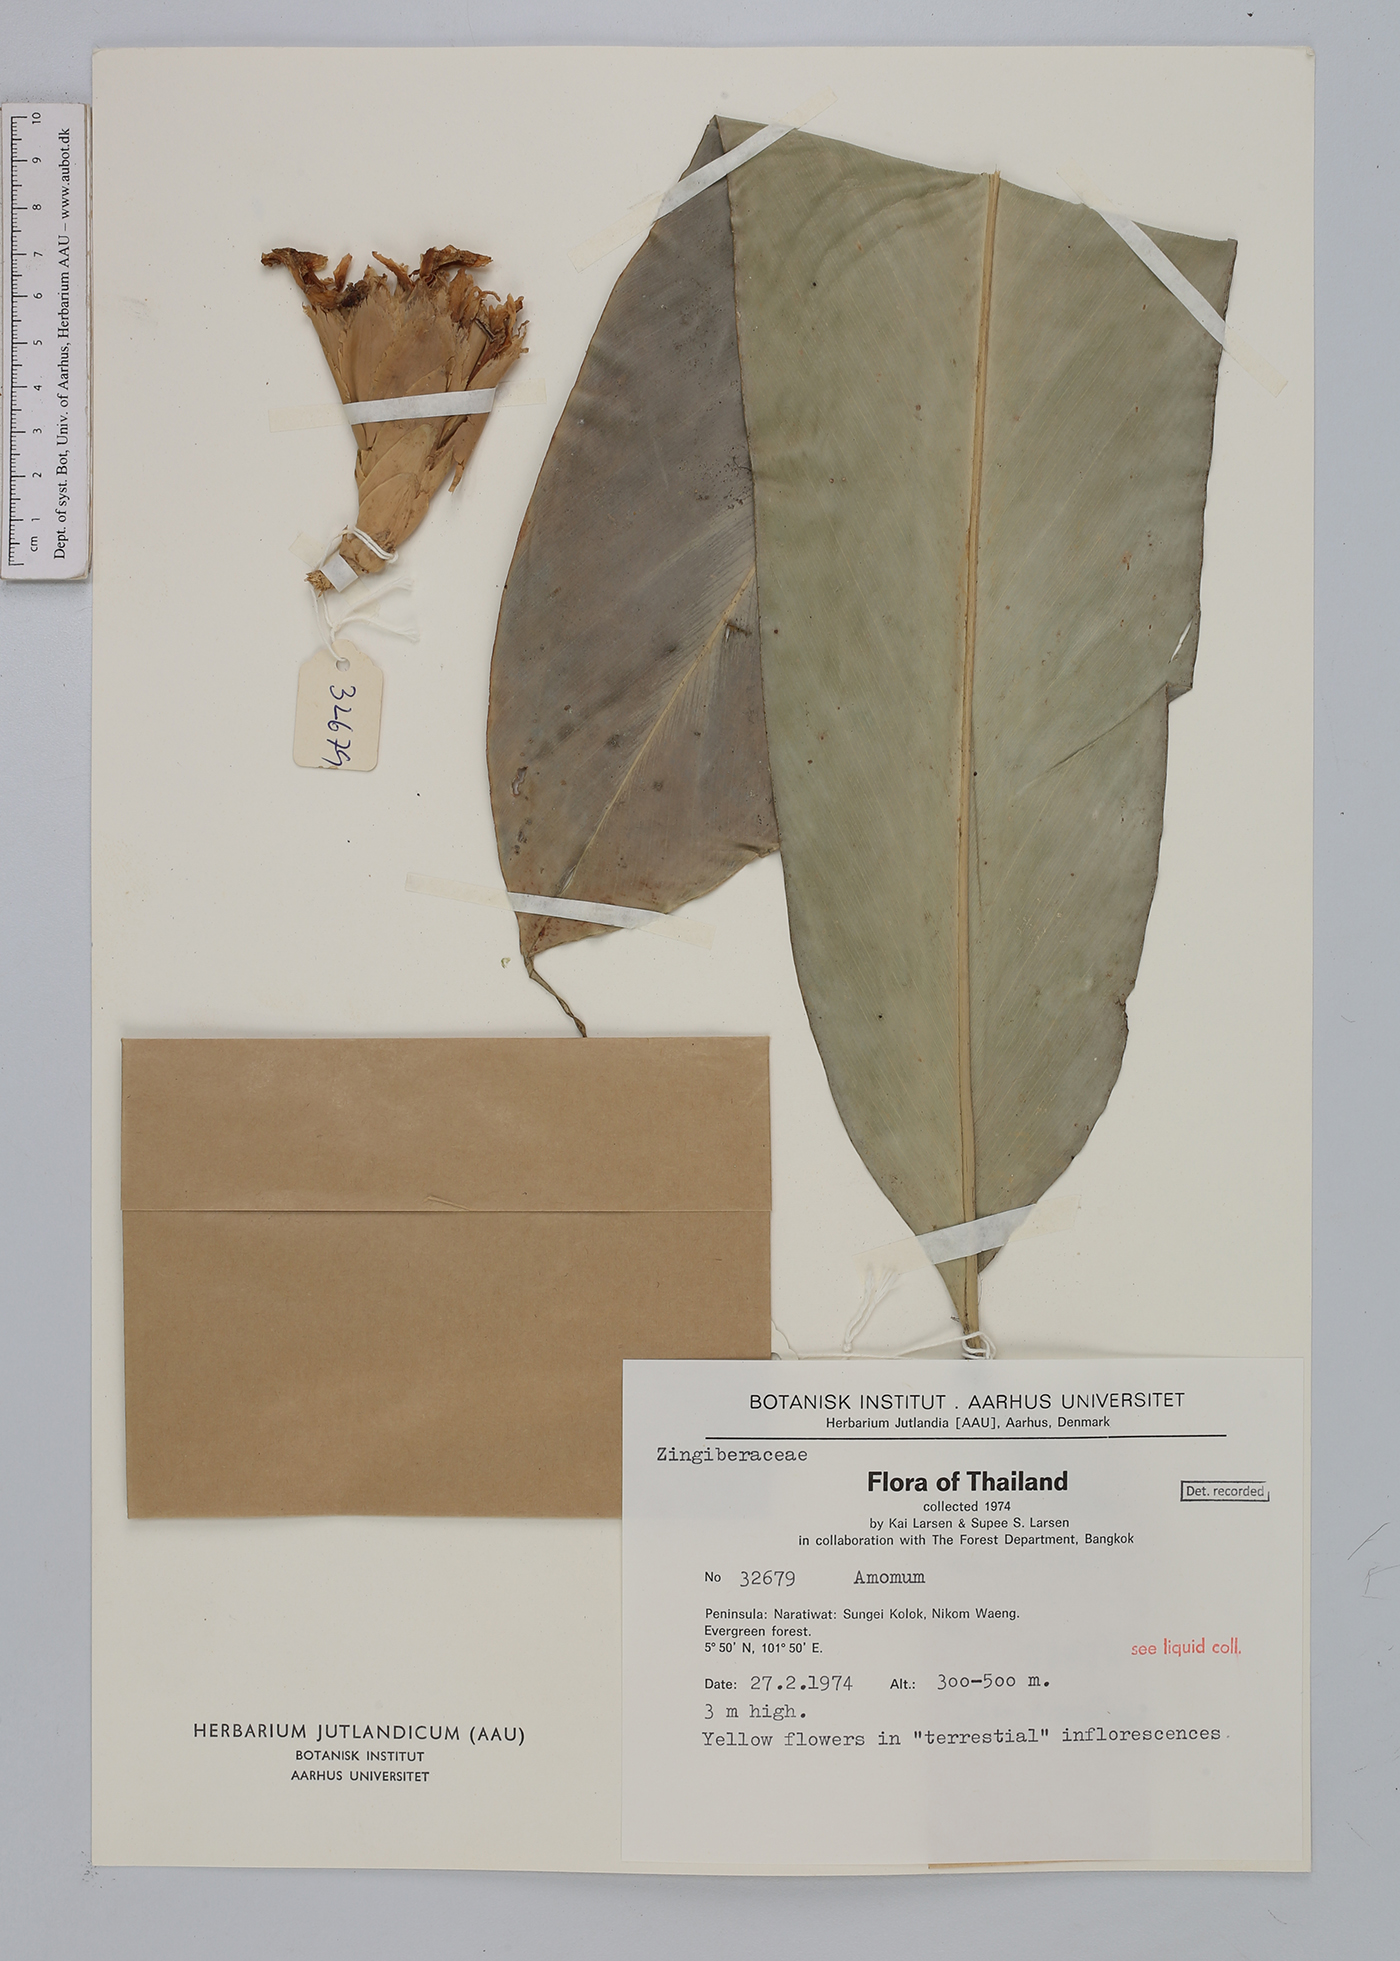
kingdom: Plantae
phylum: Tracheophyta
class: Liliopsida
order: Zingiberales
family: Zingiberaceae
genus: Amomum
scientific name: Amomum
